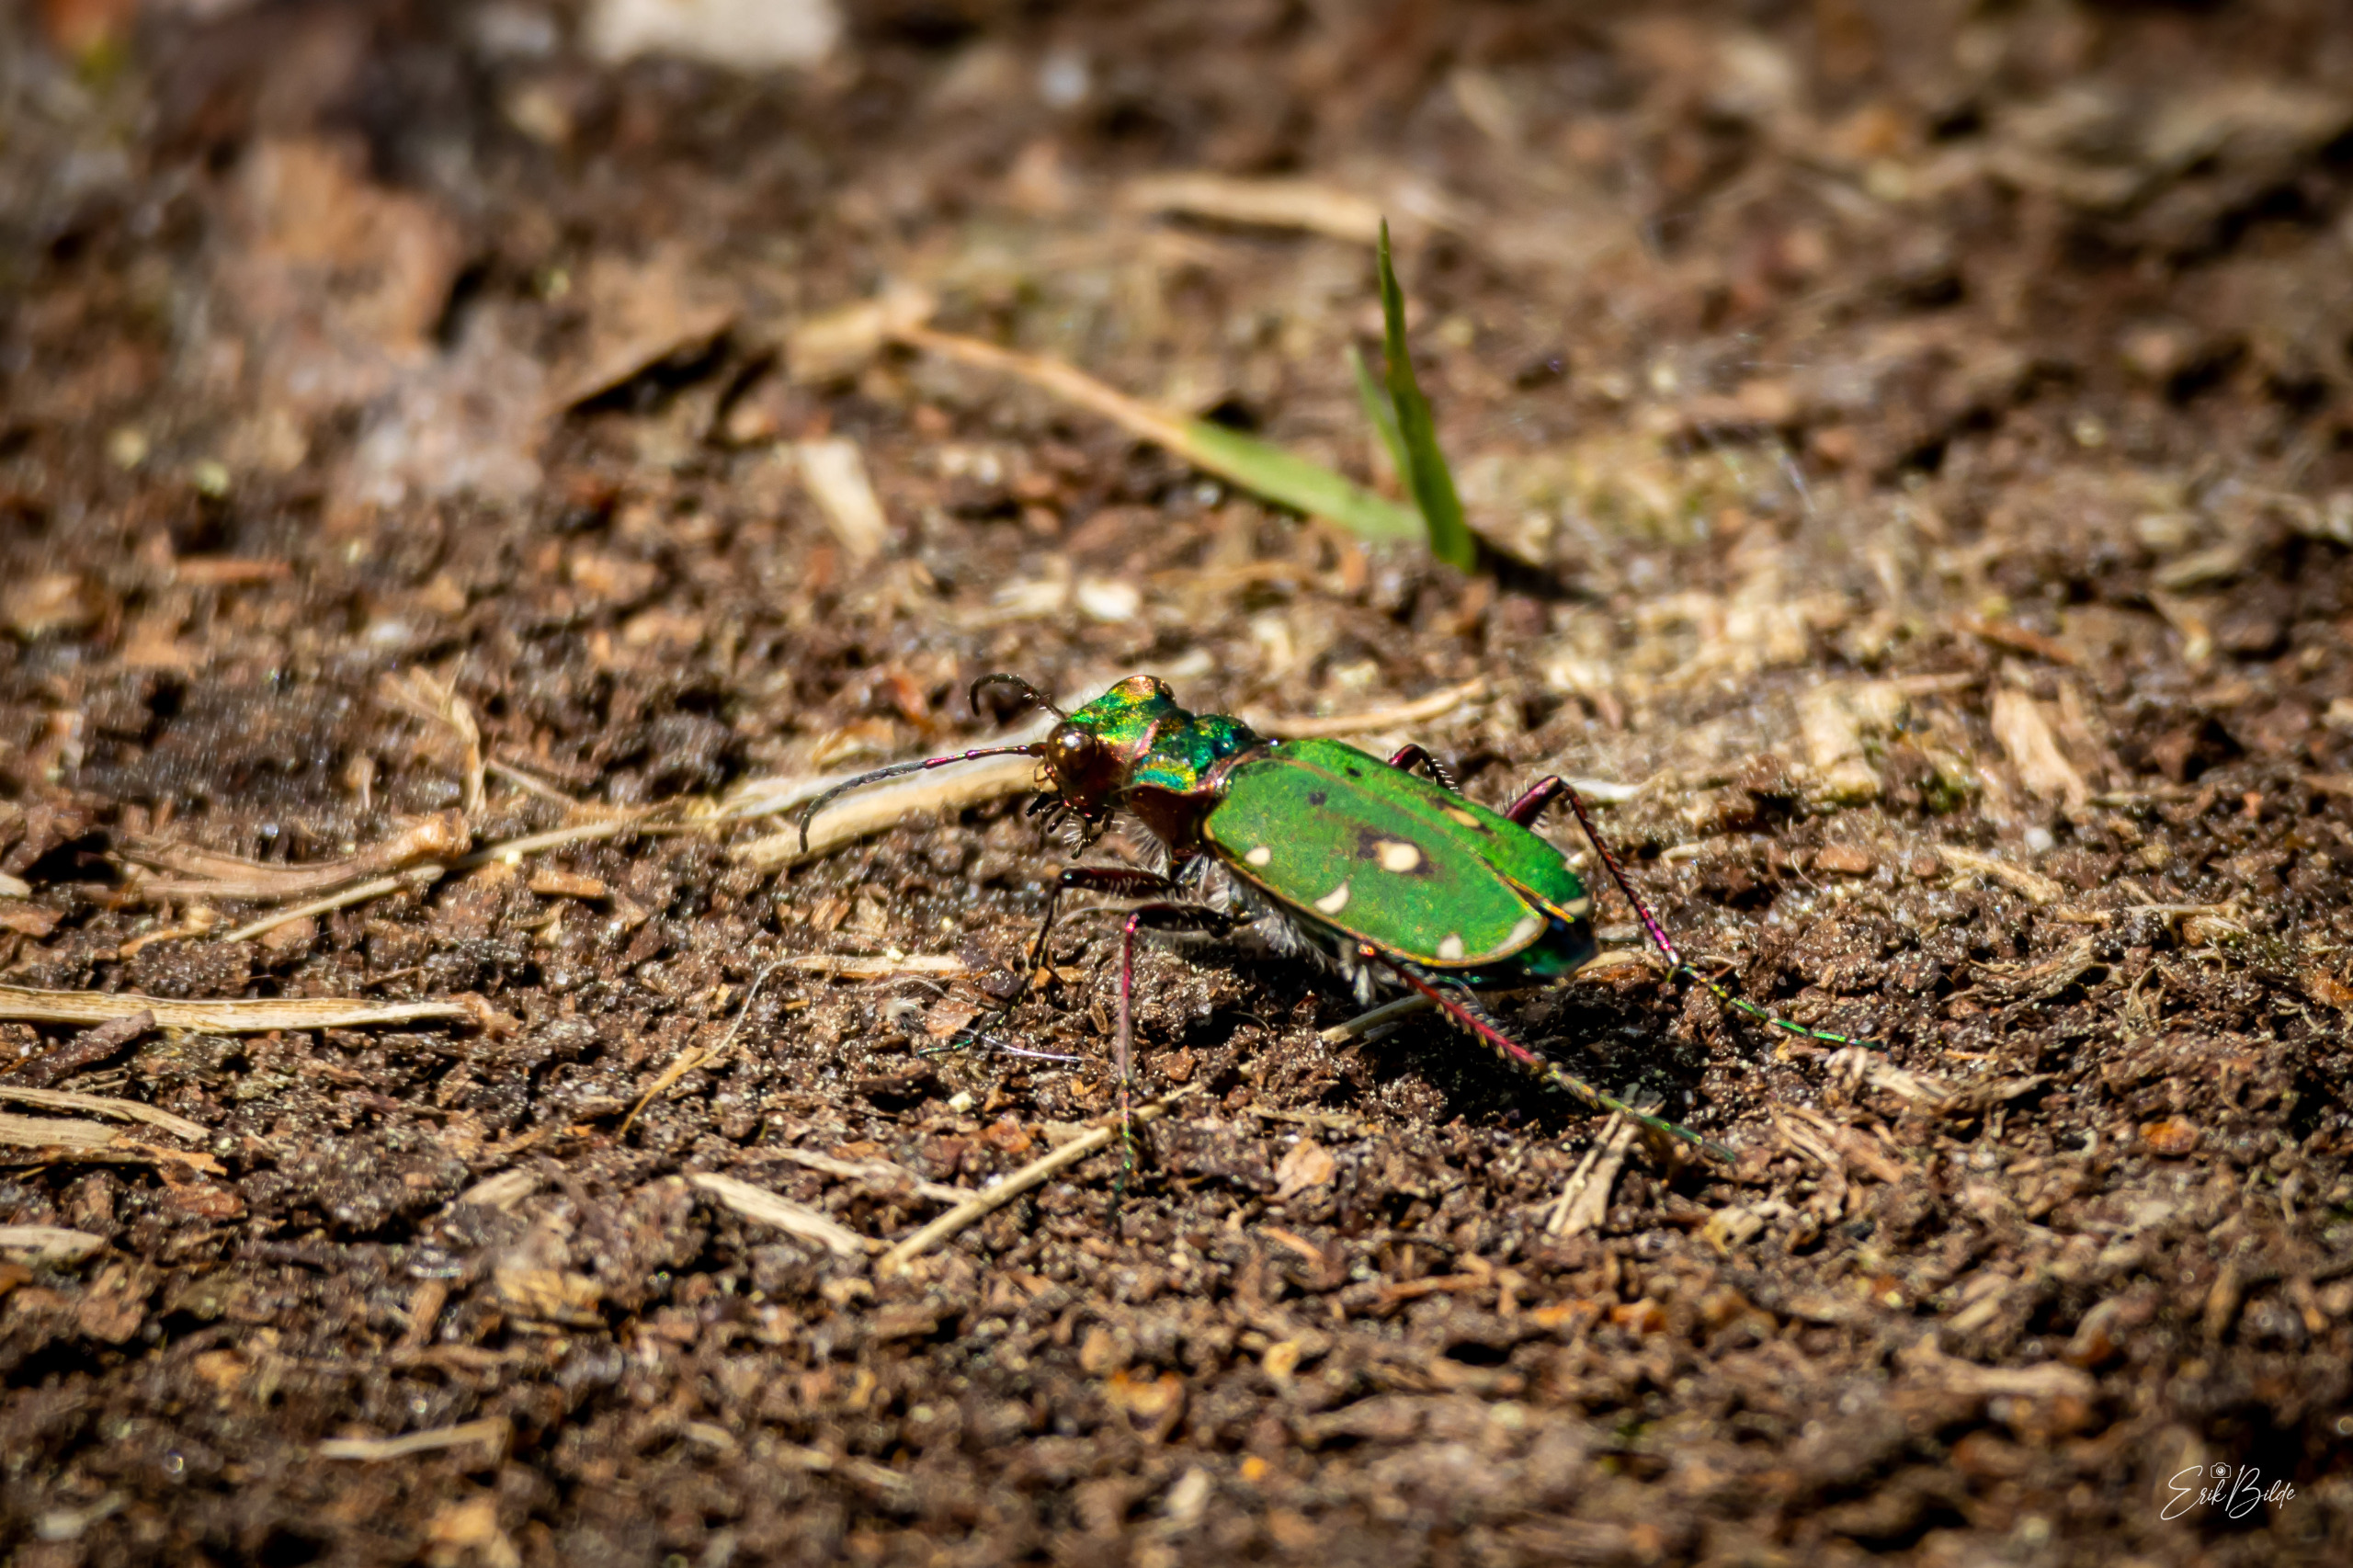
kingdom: Animalia
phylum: Arthropoda
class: Insecta
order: Coleoptera
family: Carabidae
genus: Cicindela
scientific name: Cicindela campestris
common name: Grøn sandspringer
